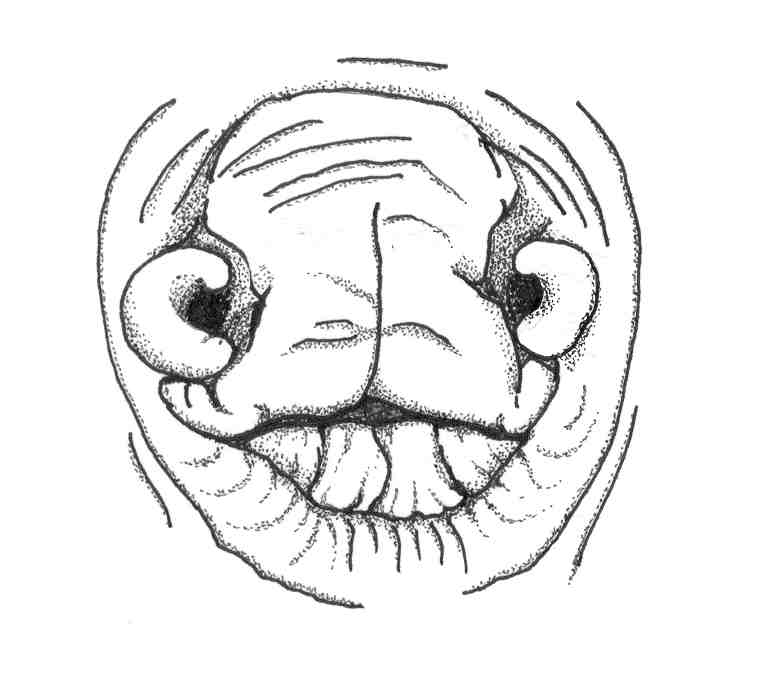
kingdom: Animalia
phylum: Chordata
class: Elasmobranchii
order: Torpediniformes
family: Narkidae
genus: Narke
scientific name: Narke capensis
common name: Onefin electric ray
